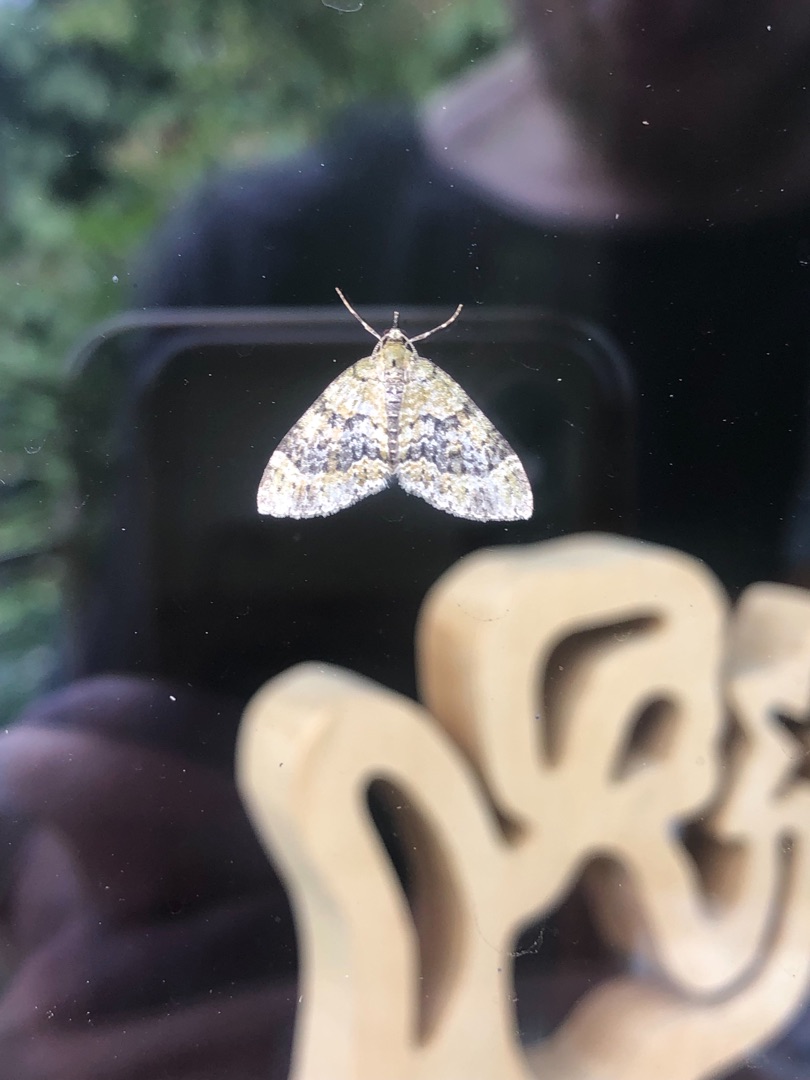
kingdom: Animalia
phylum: Arthropoda
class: Insecta
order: Lepidoptera
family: Geometridae
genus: Acasis
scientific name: Acasis viretata
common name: Tørstetræblomstmåler
